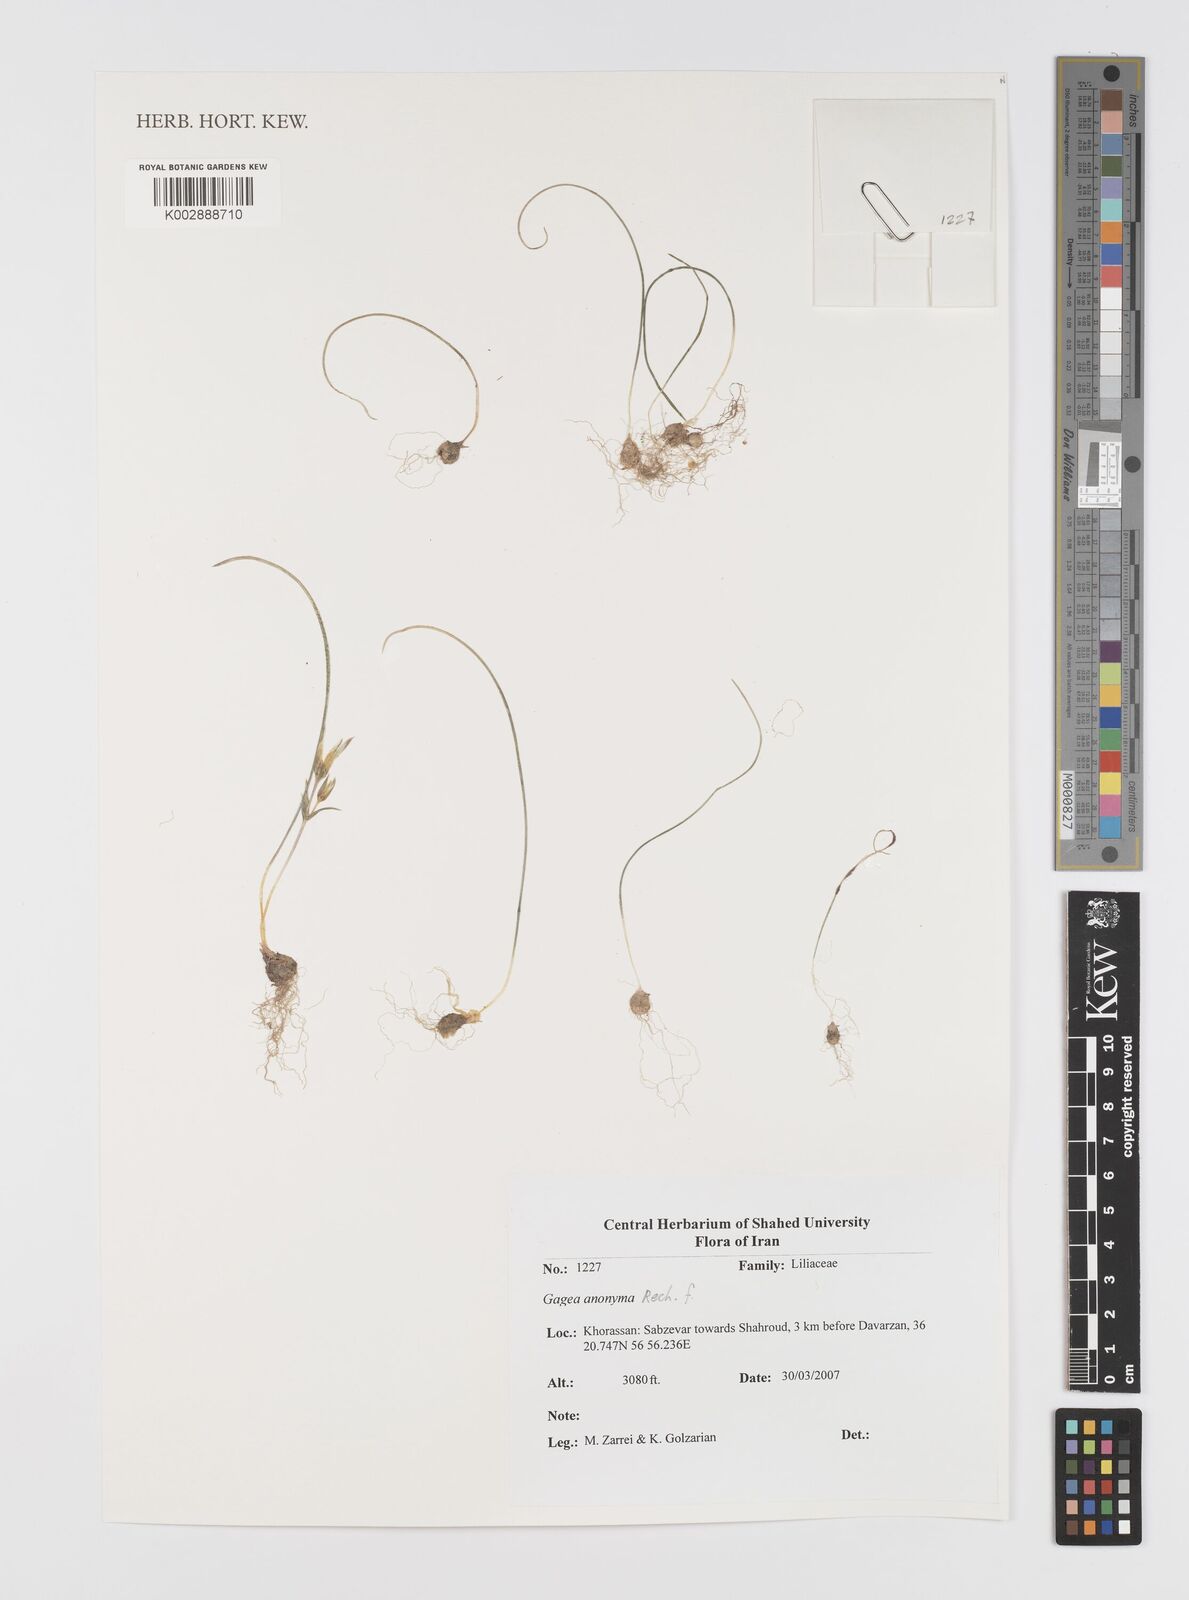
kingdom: Plantae
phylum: Tracheophyta
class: Liliopsida
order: Liliales
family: Liliaceae
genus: Gagea
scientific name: Gagea setifolia
